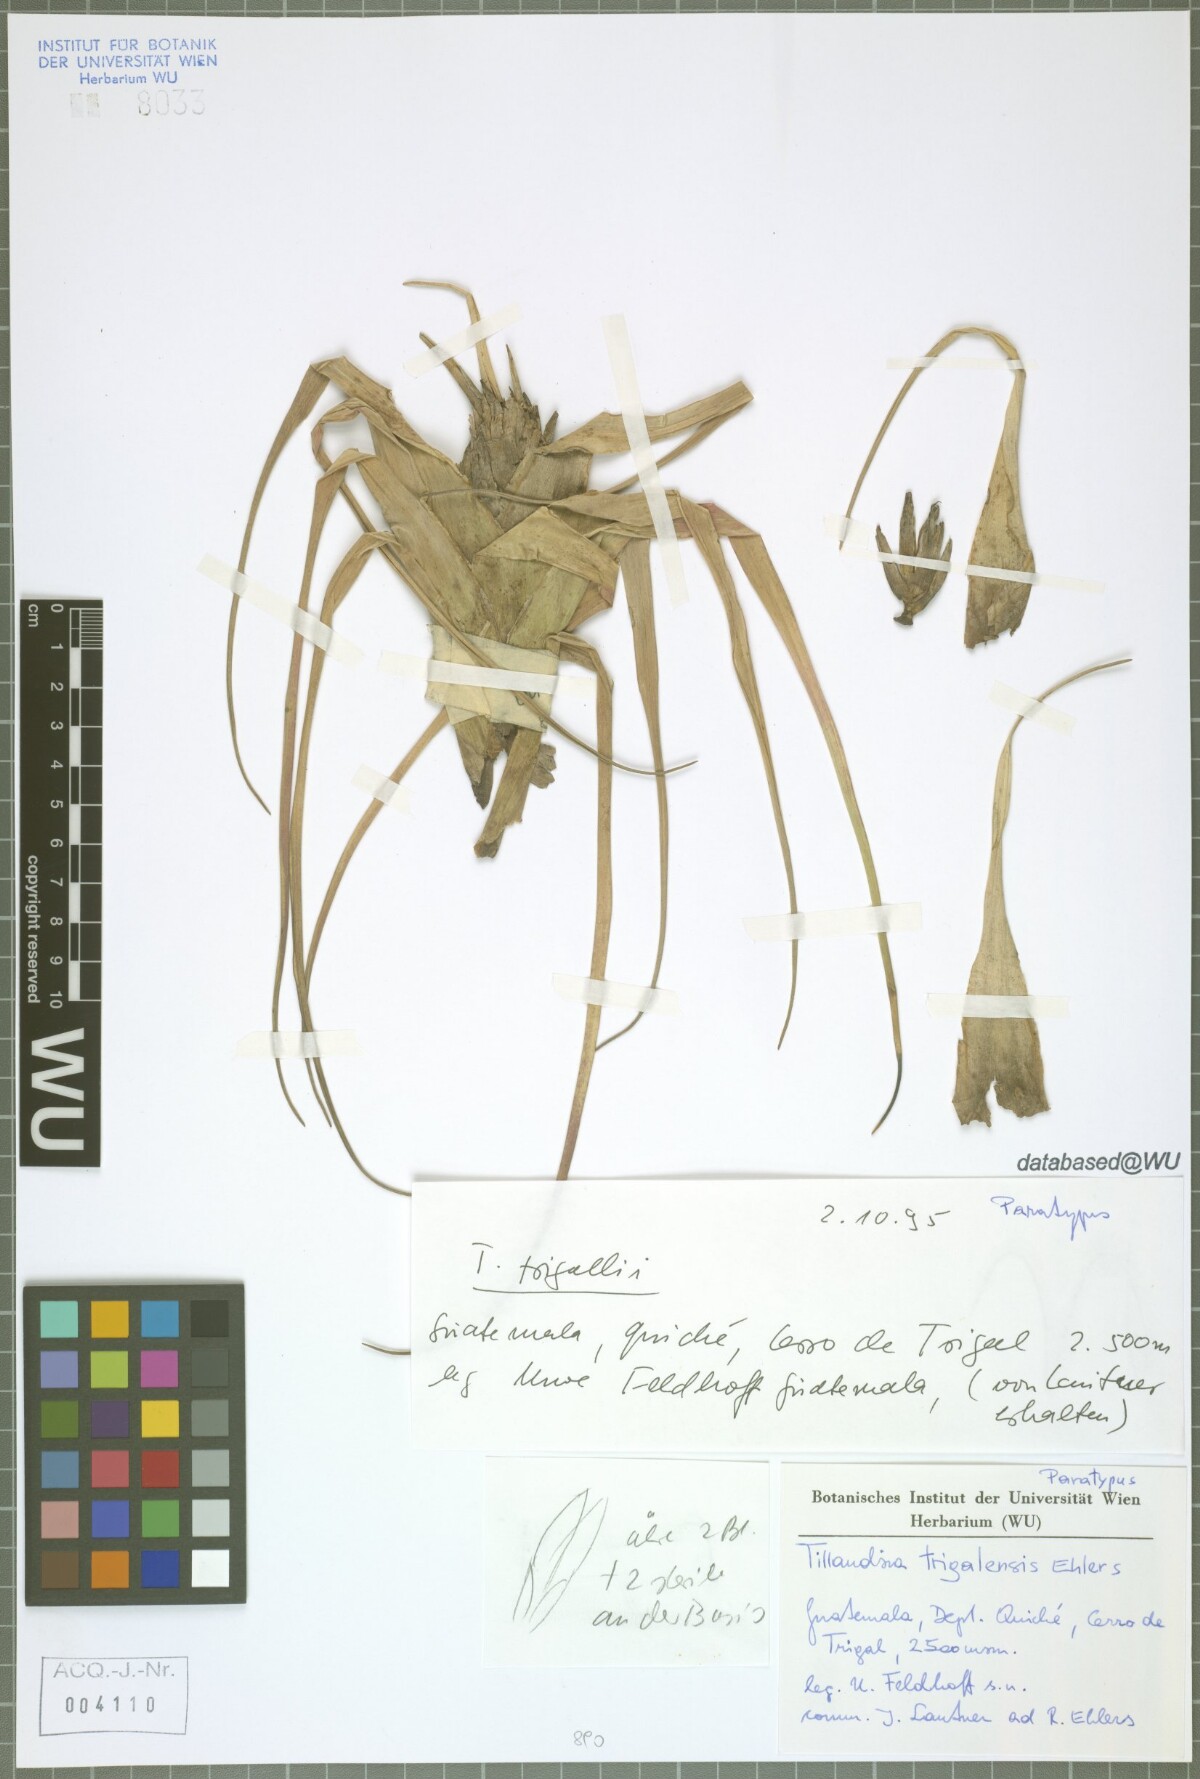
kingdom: Plantae
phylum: Tracheophyta
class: Liliopsida
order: Poales
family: Bromeliaceae
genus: Tillandsia
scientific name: Tillandsia trigalensis
